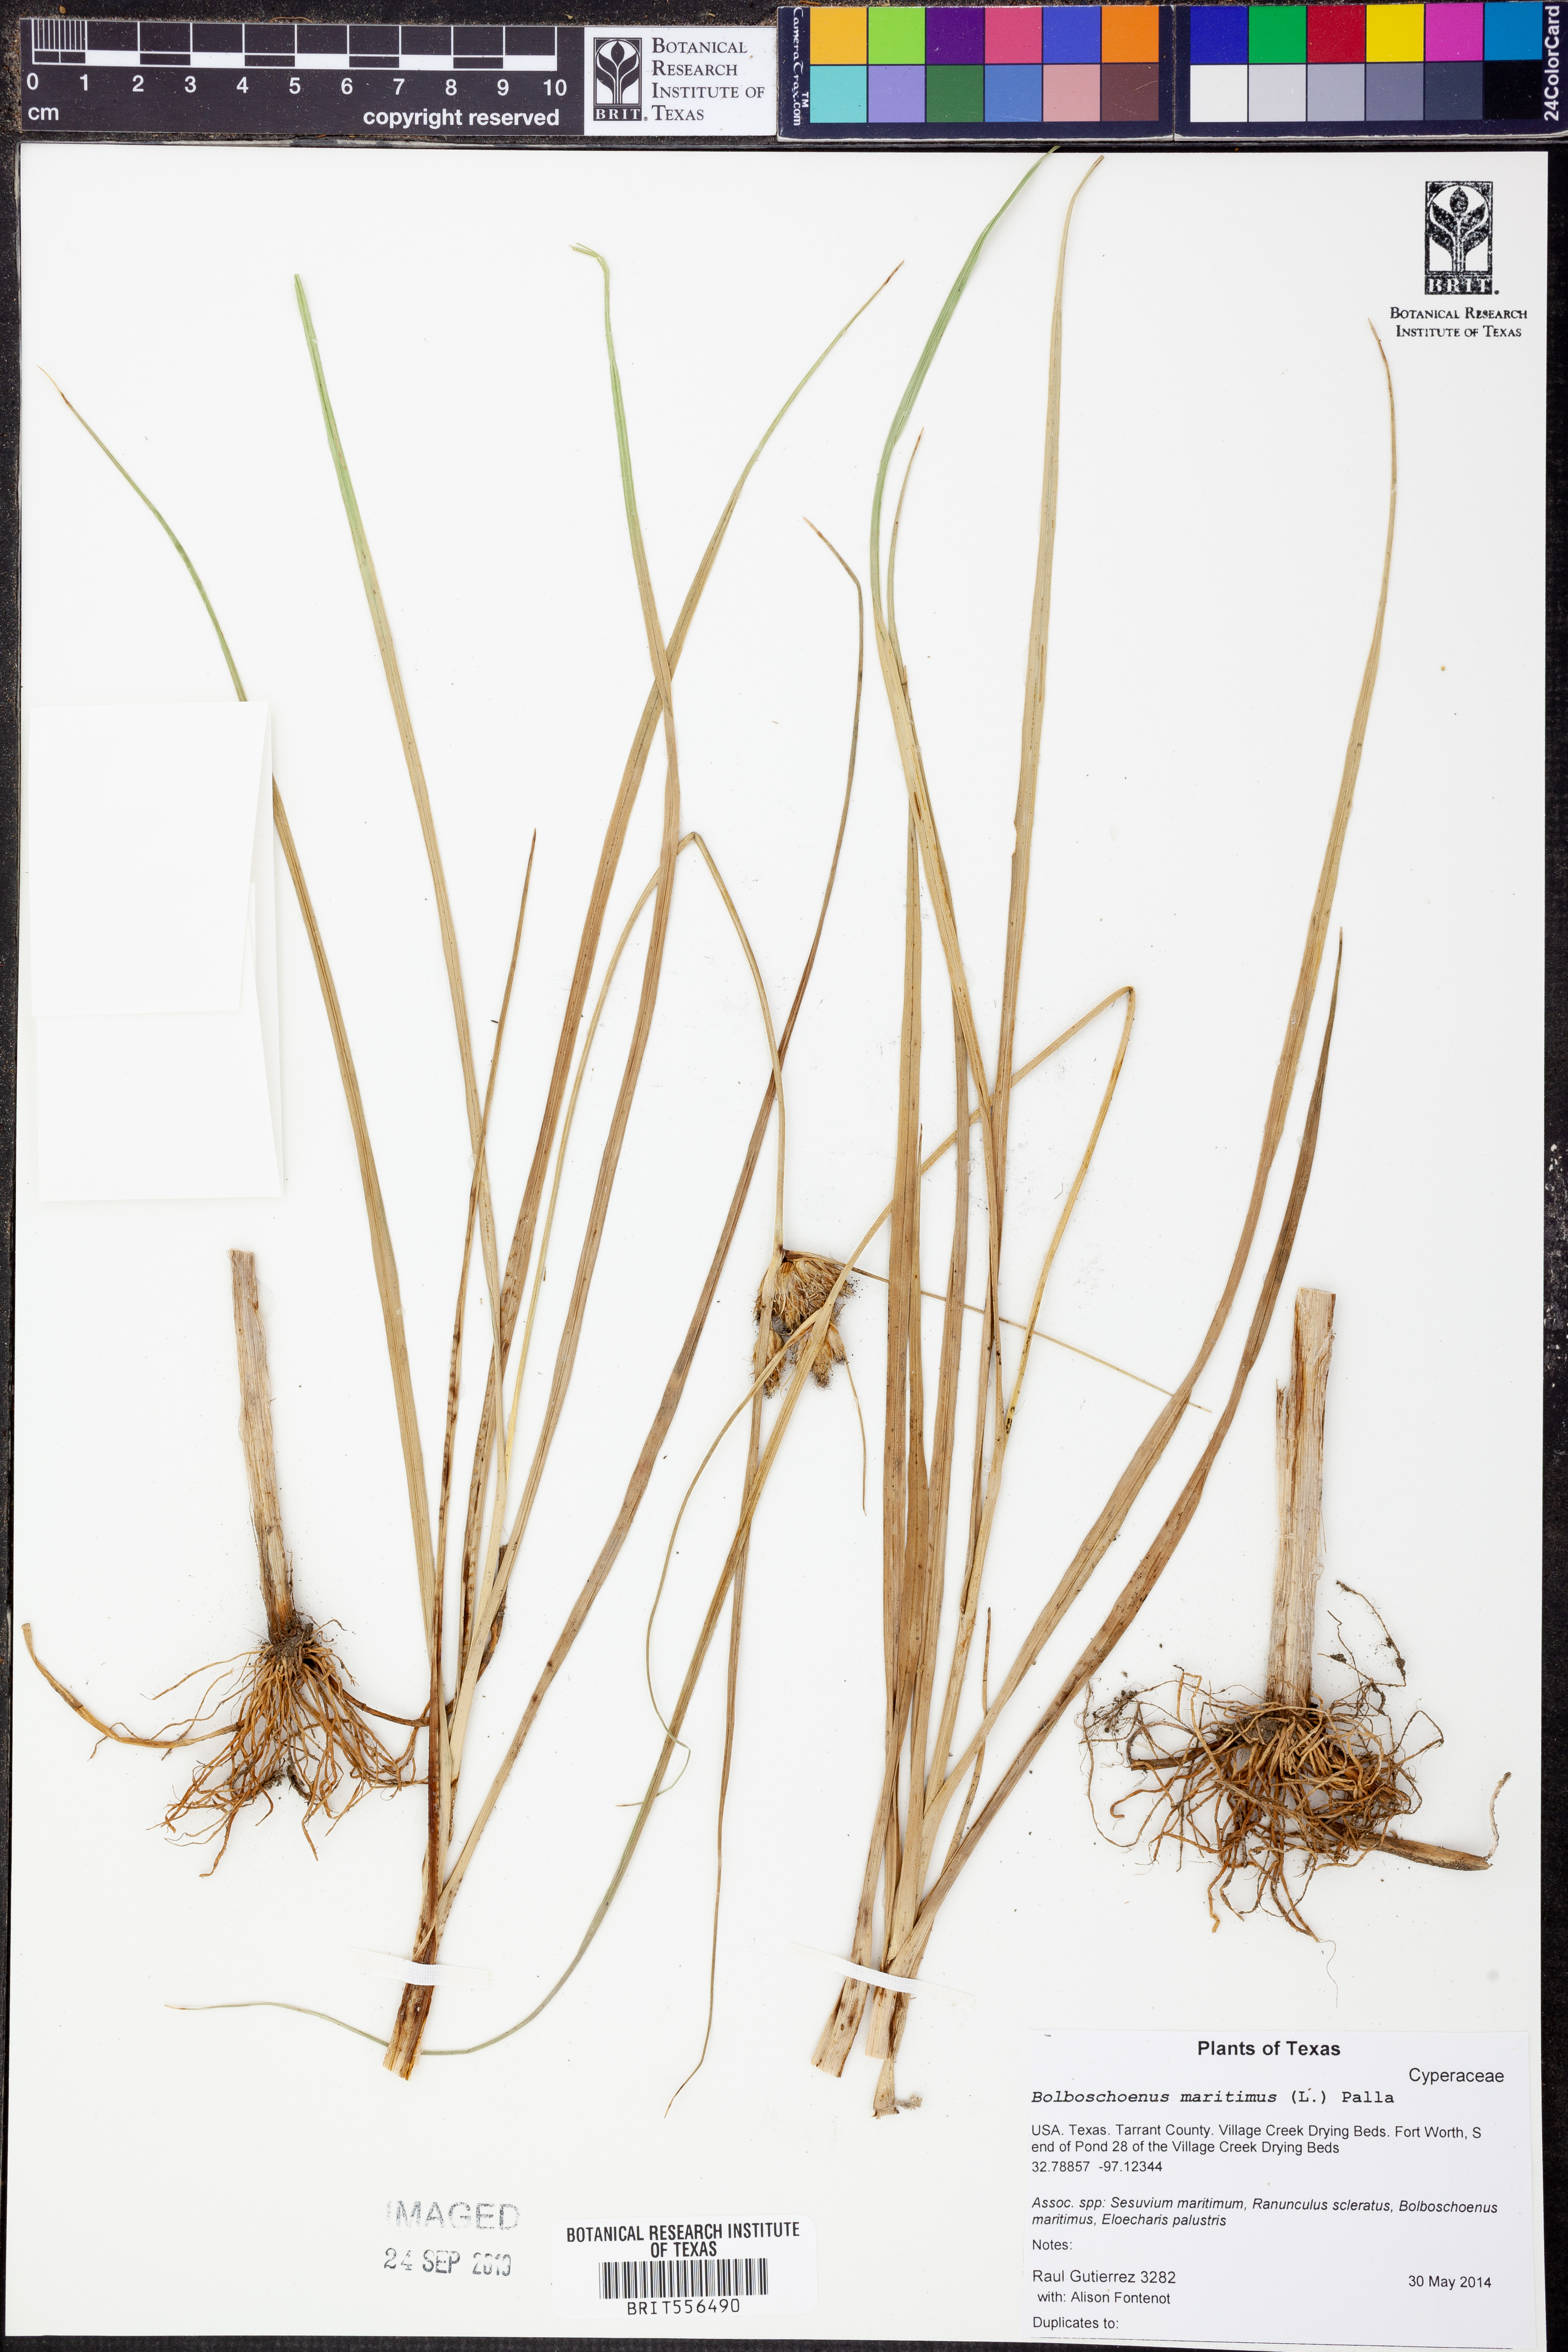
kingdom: Plantae
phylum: Tracheophyta
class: Liliopsida
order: Poales
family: Cyperaceae
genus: Bolboschoenus
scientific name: Bolboschoenus maritimus
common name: Sea club-rush
